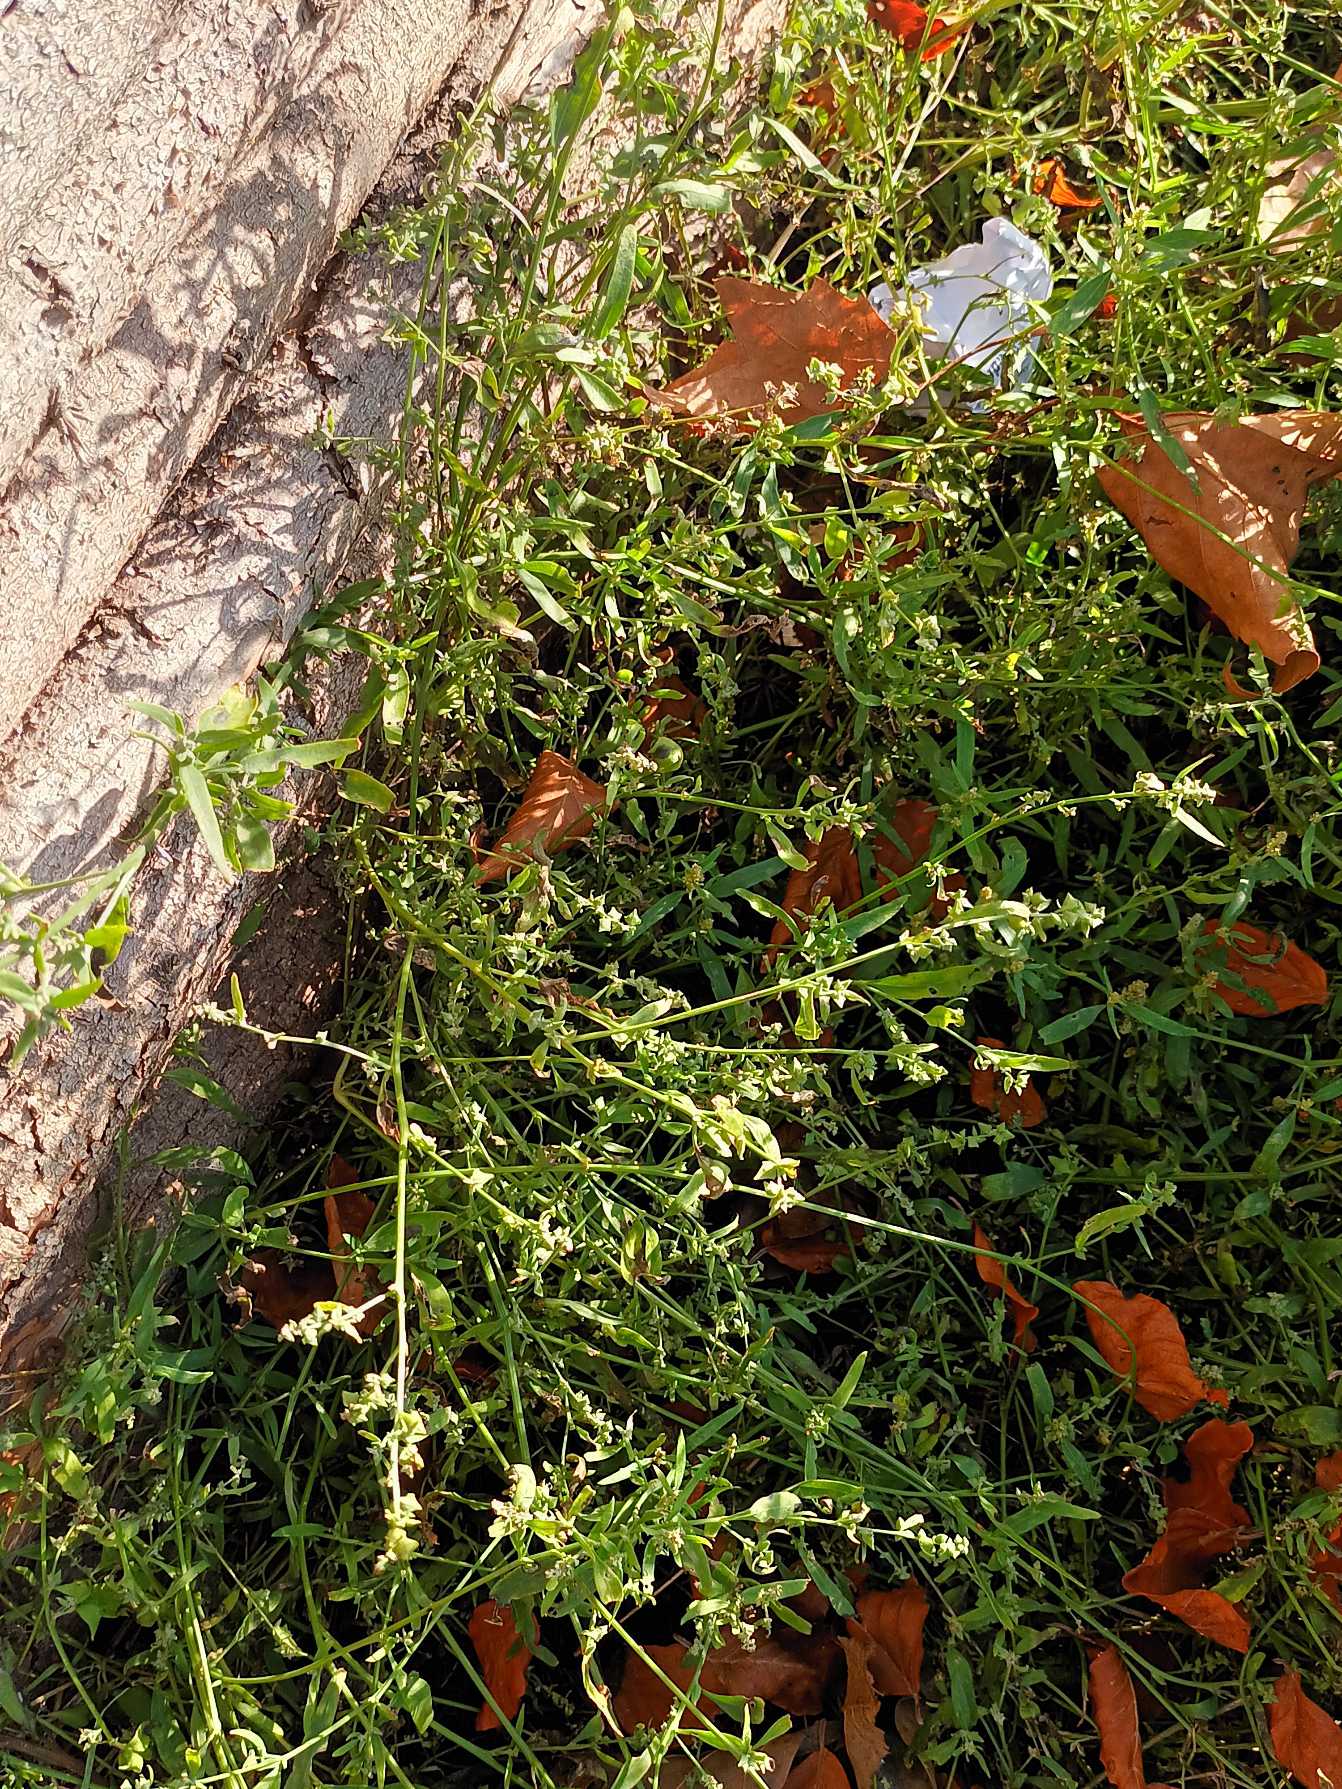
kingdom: Plantae
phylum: Tracheophyta
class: Magnoliopsida
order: Caryophyllales
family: Amaranthaceae
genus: Atriplex
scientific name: Atriplex patula
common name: Svine-mælde
